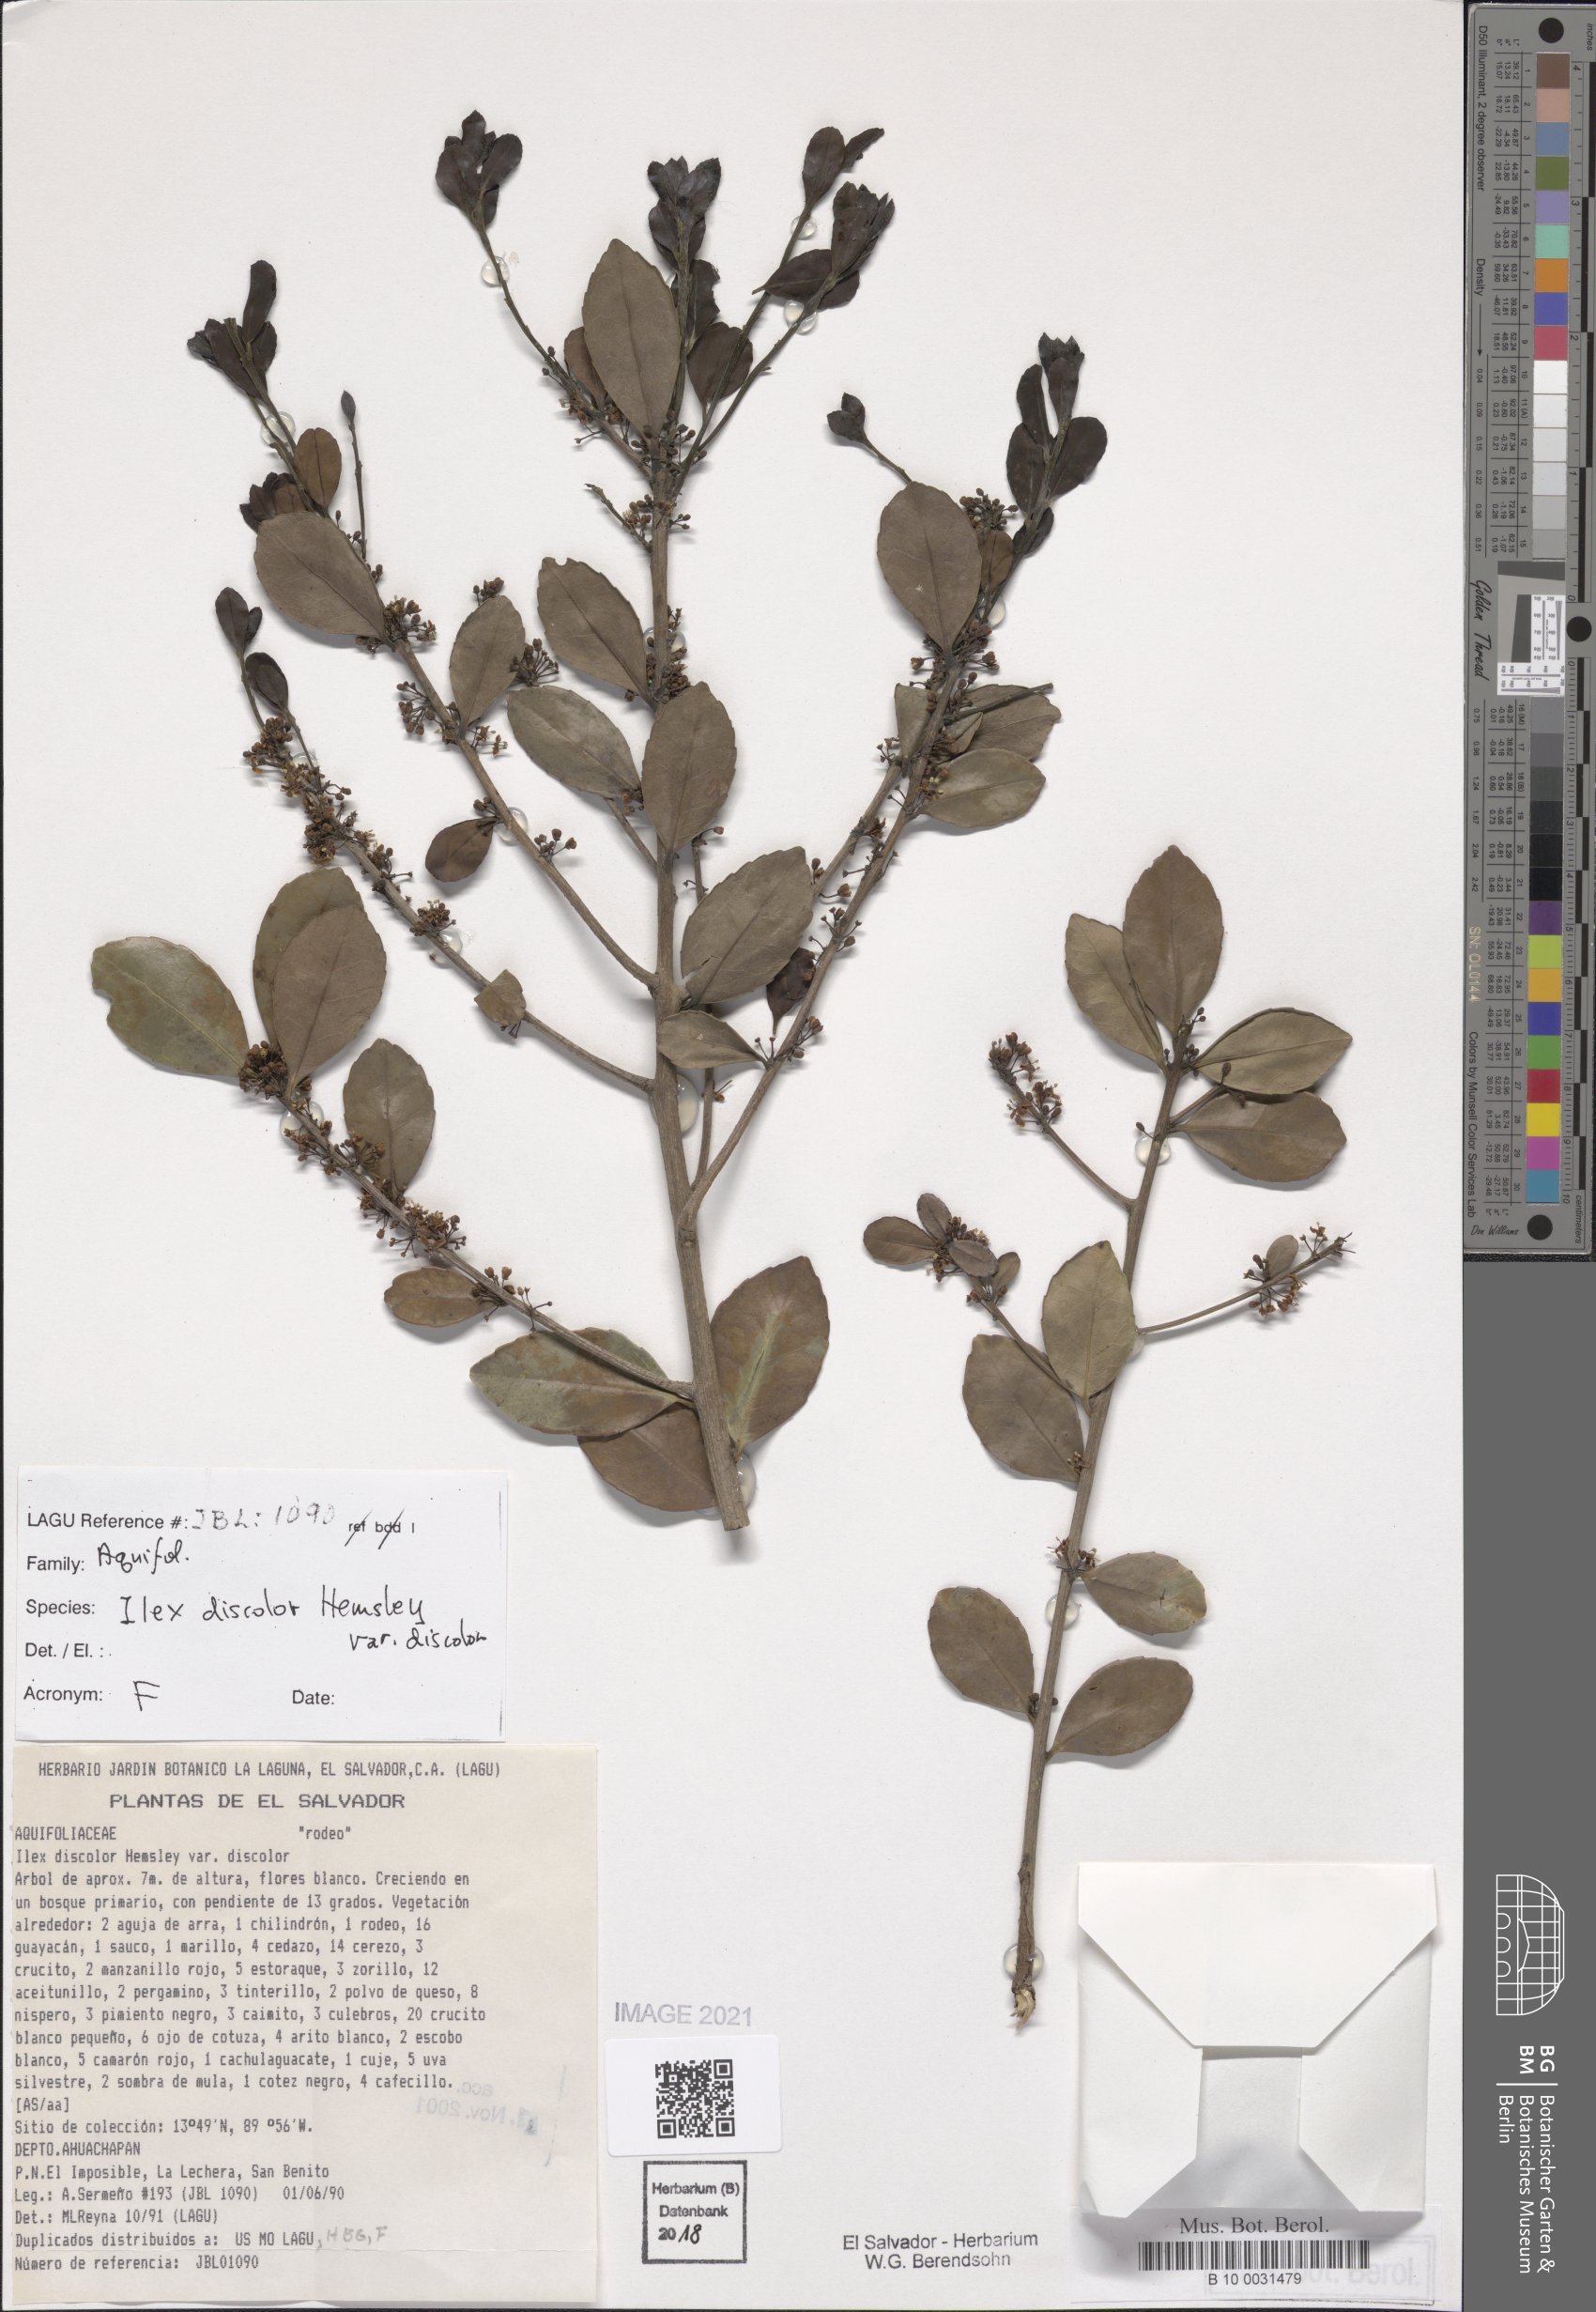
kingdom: Plantae
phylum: Tracheophyta
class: Magnoliopsida
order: Aquifoliales
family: Aquifoliaceae
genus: Ilex
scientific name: Ilex discolor
